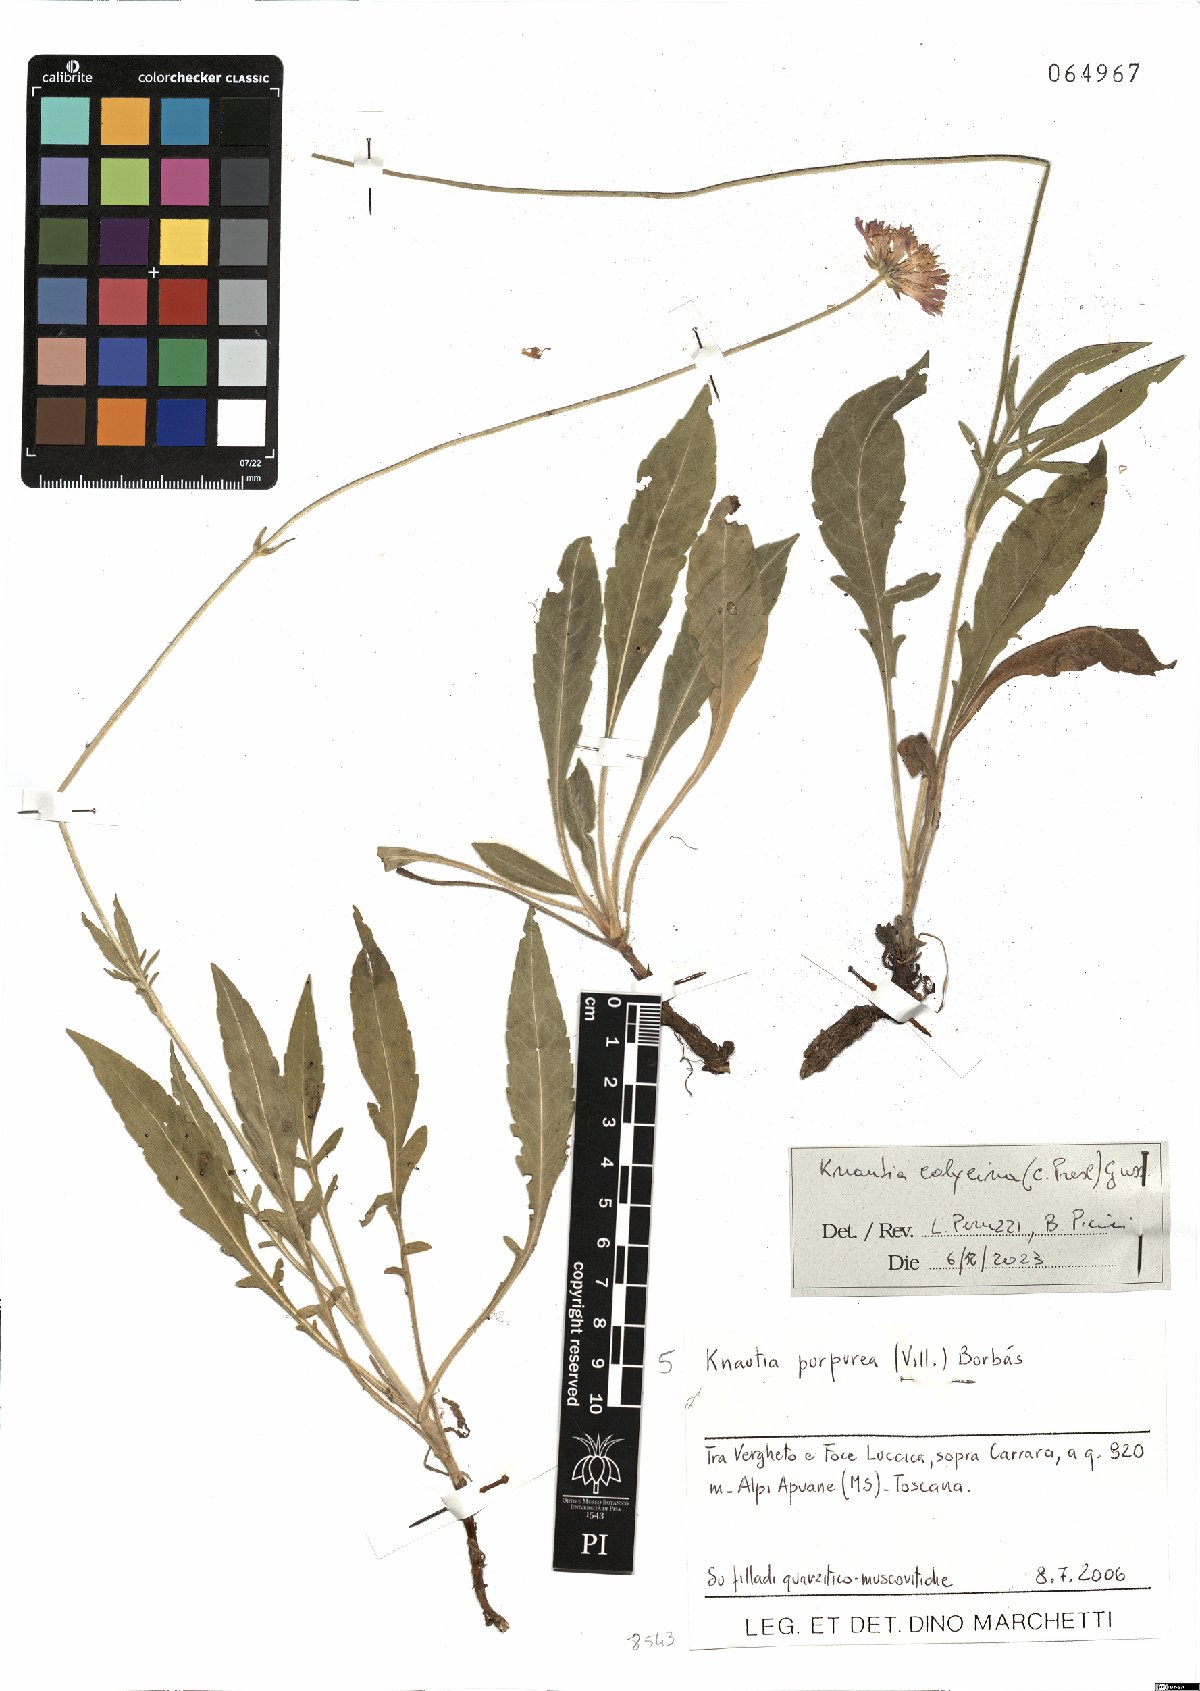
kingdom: Plantae
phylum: Tracheophyta
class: Magnoliopsida
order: Dipsacales
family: Caprifoliaceae
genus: Knautia
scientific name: Knautia calycina
